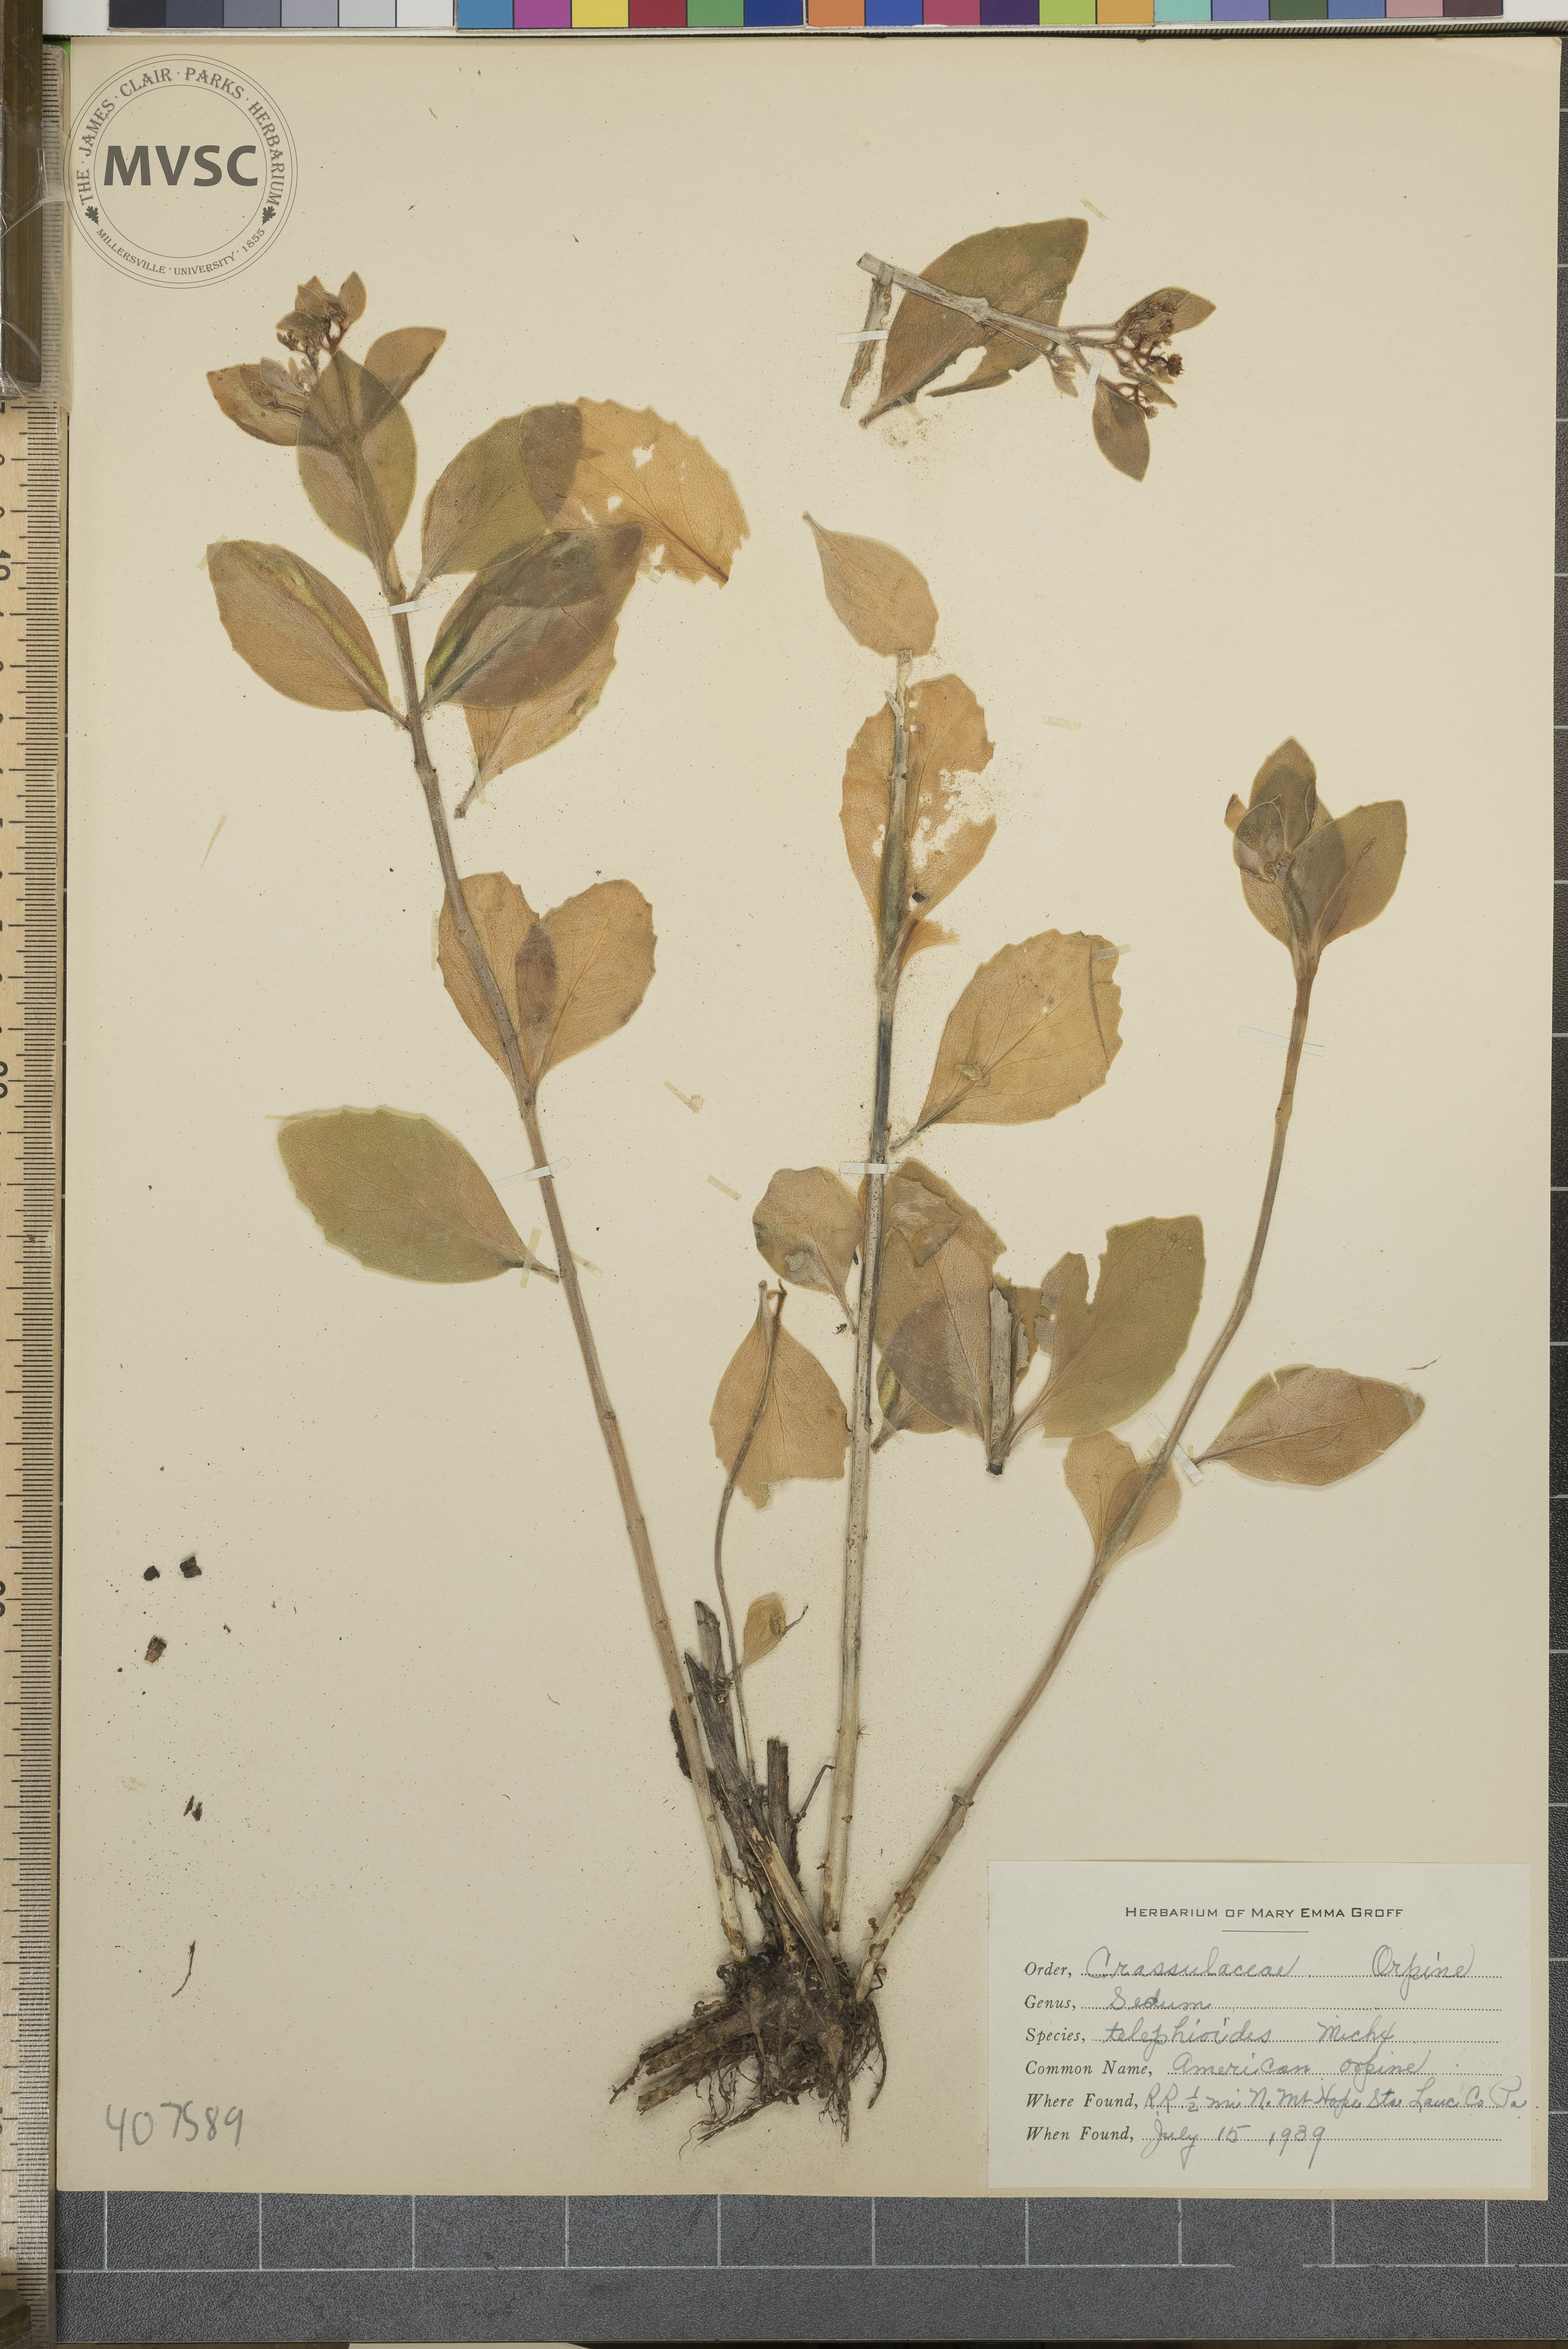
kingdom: Plantae
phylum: Tracheophyta
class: Magnoliopsida
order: Saxifragales
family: Crassulaceae
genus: Hylotelephium
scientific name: Hylotelephium telephium
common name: Live-forever
